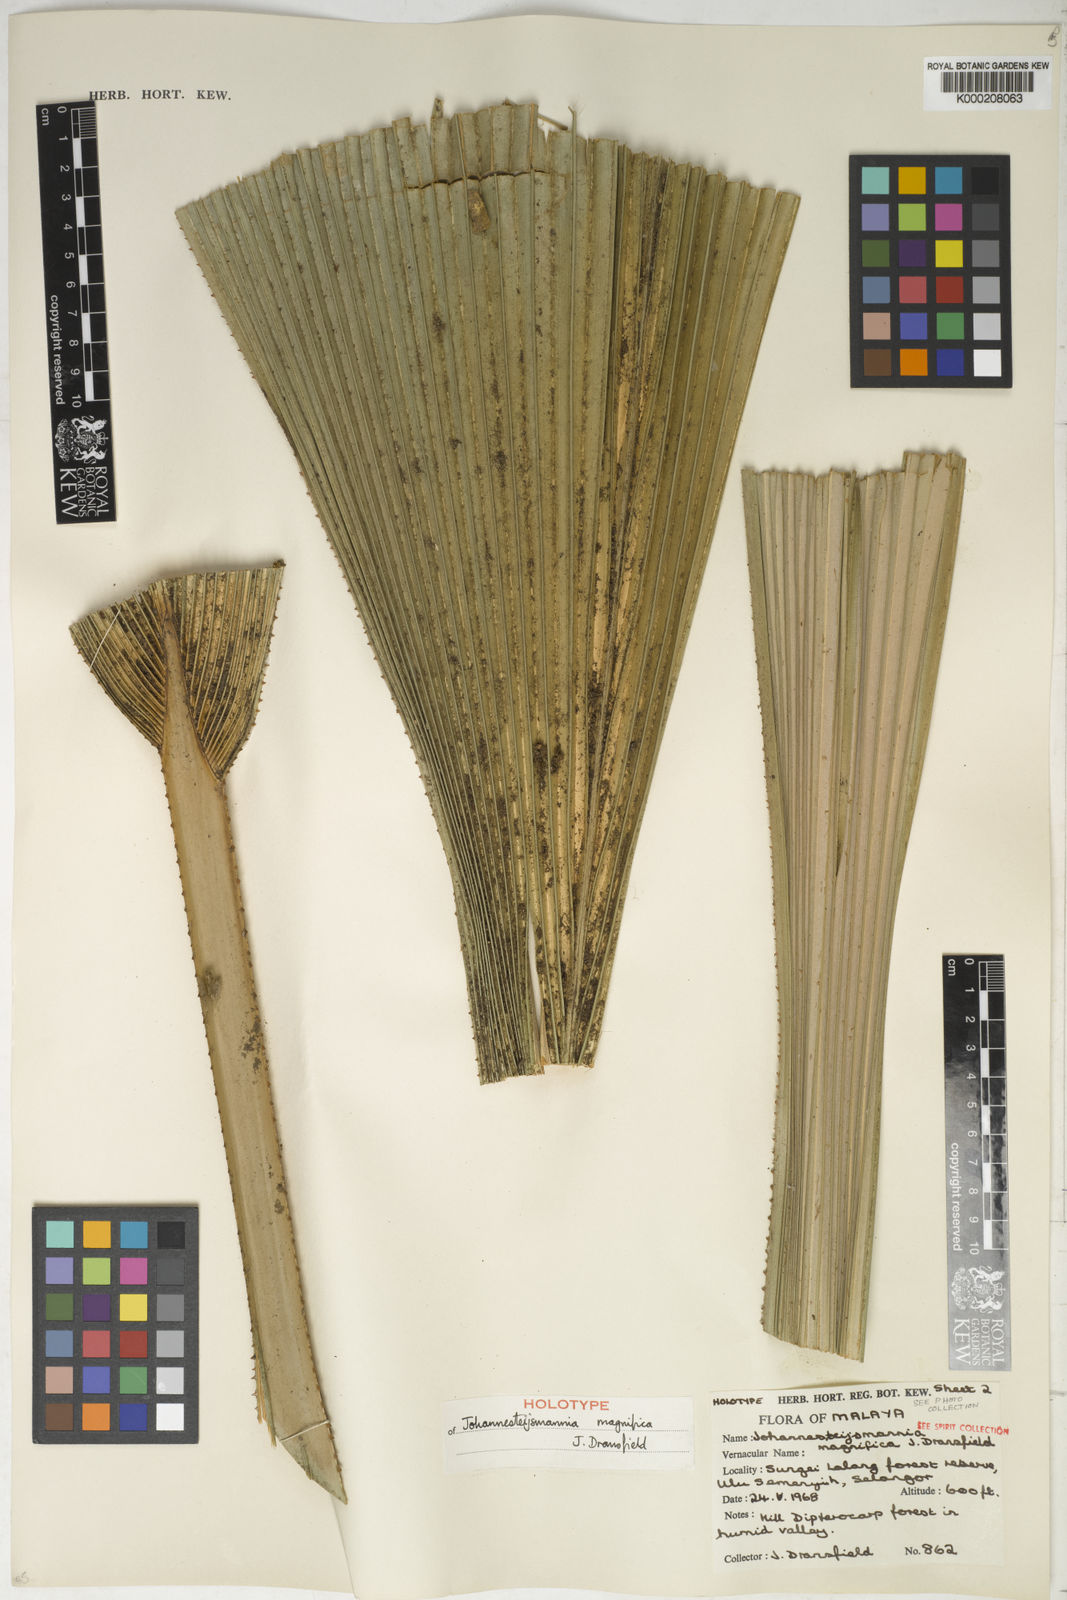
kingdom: Plantae
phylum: Tracheophyta
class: Liliopsida
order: Arecales
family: Arecaceae
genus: Johannesteijsmannia
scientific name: Johannesteijsmannia magnifica
